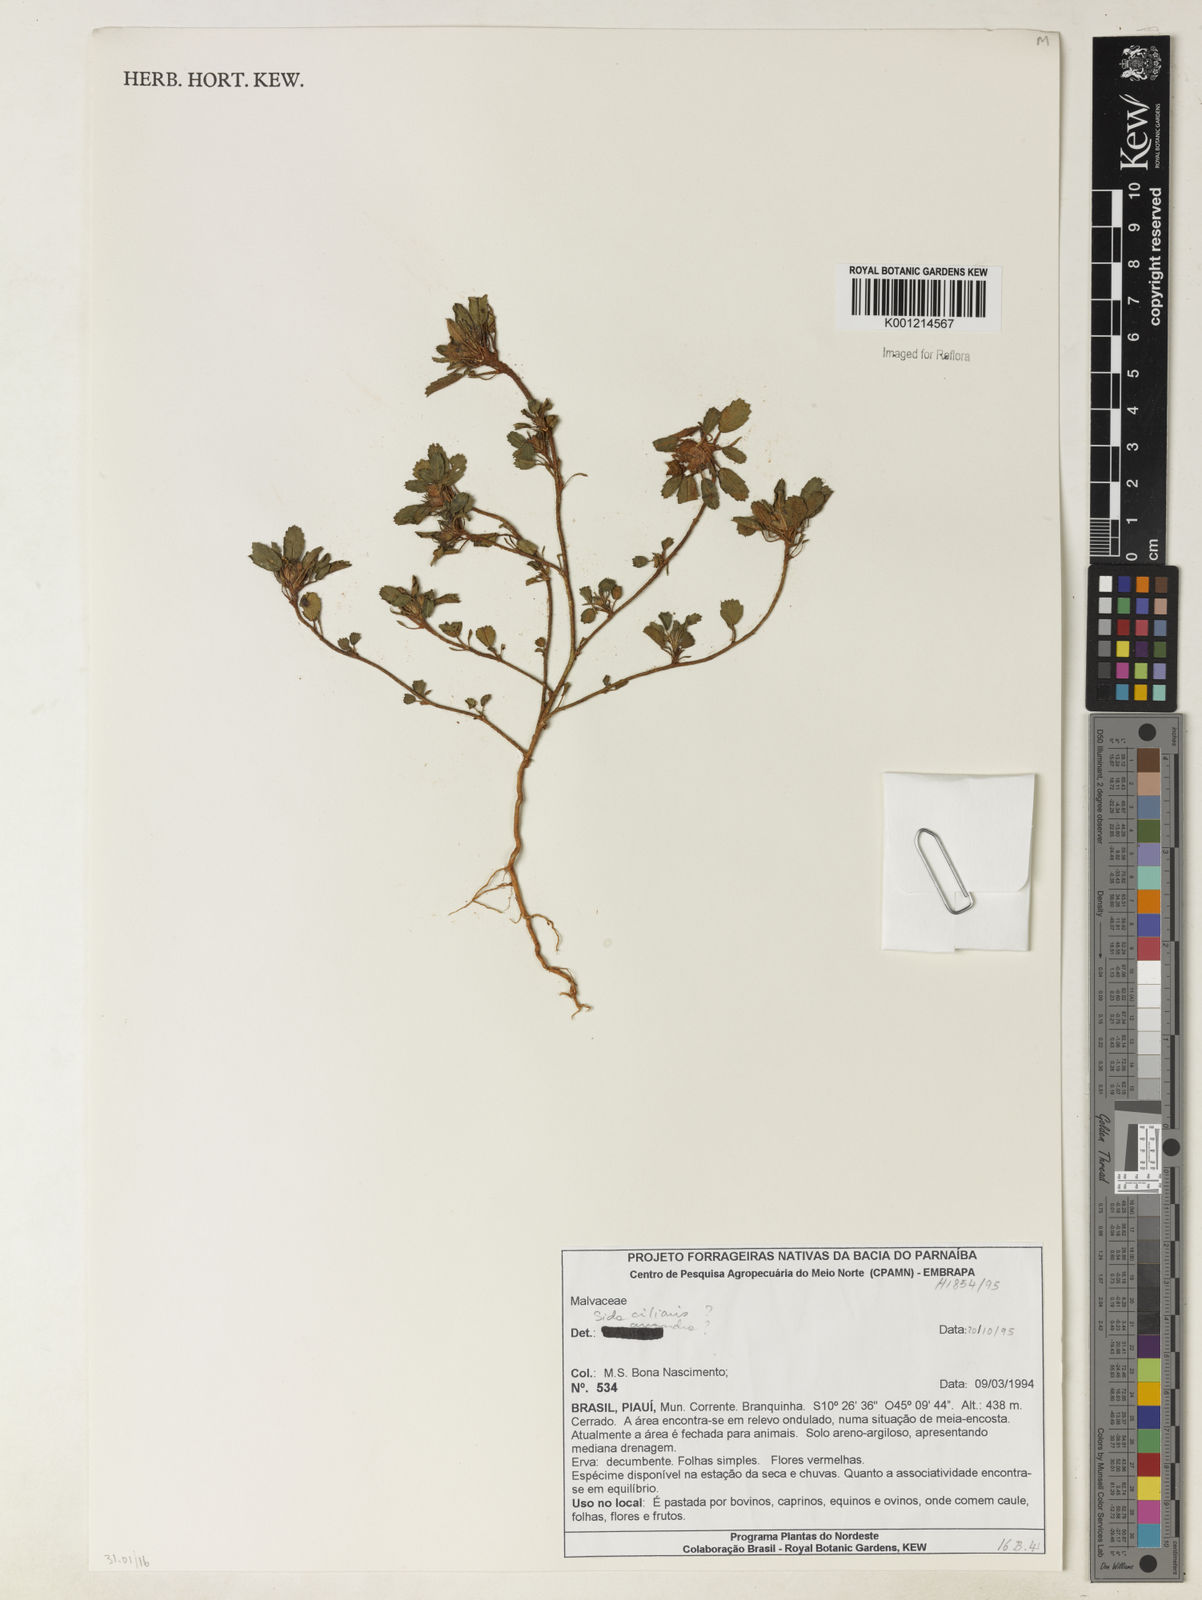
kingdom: Plantae
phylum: Tracheophyta
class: Magnoliopsida
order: Malvales
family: Malvaceae
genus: Sida
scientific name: Sida ciliaris
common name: Bracted fanpetals
